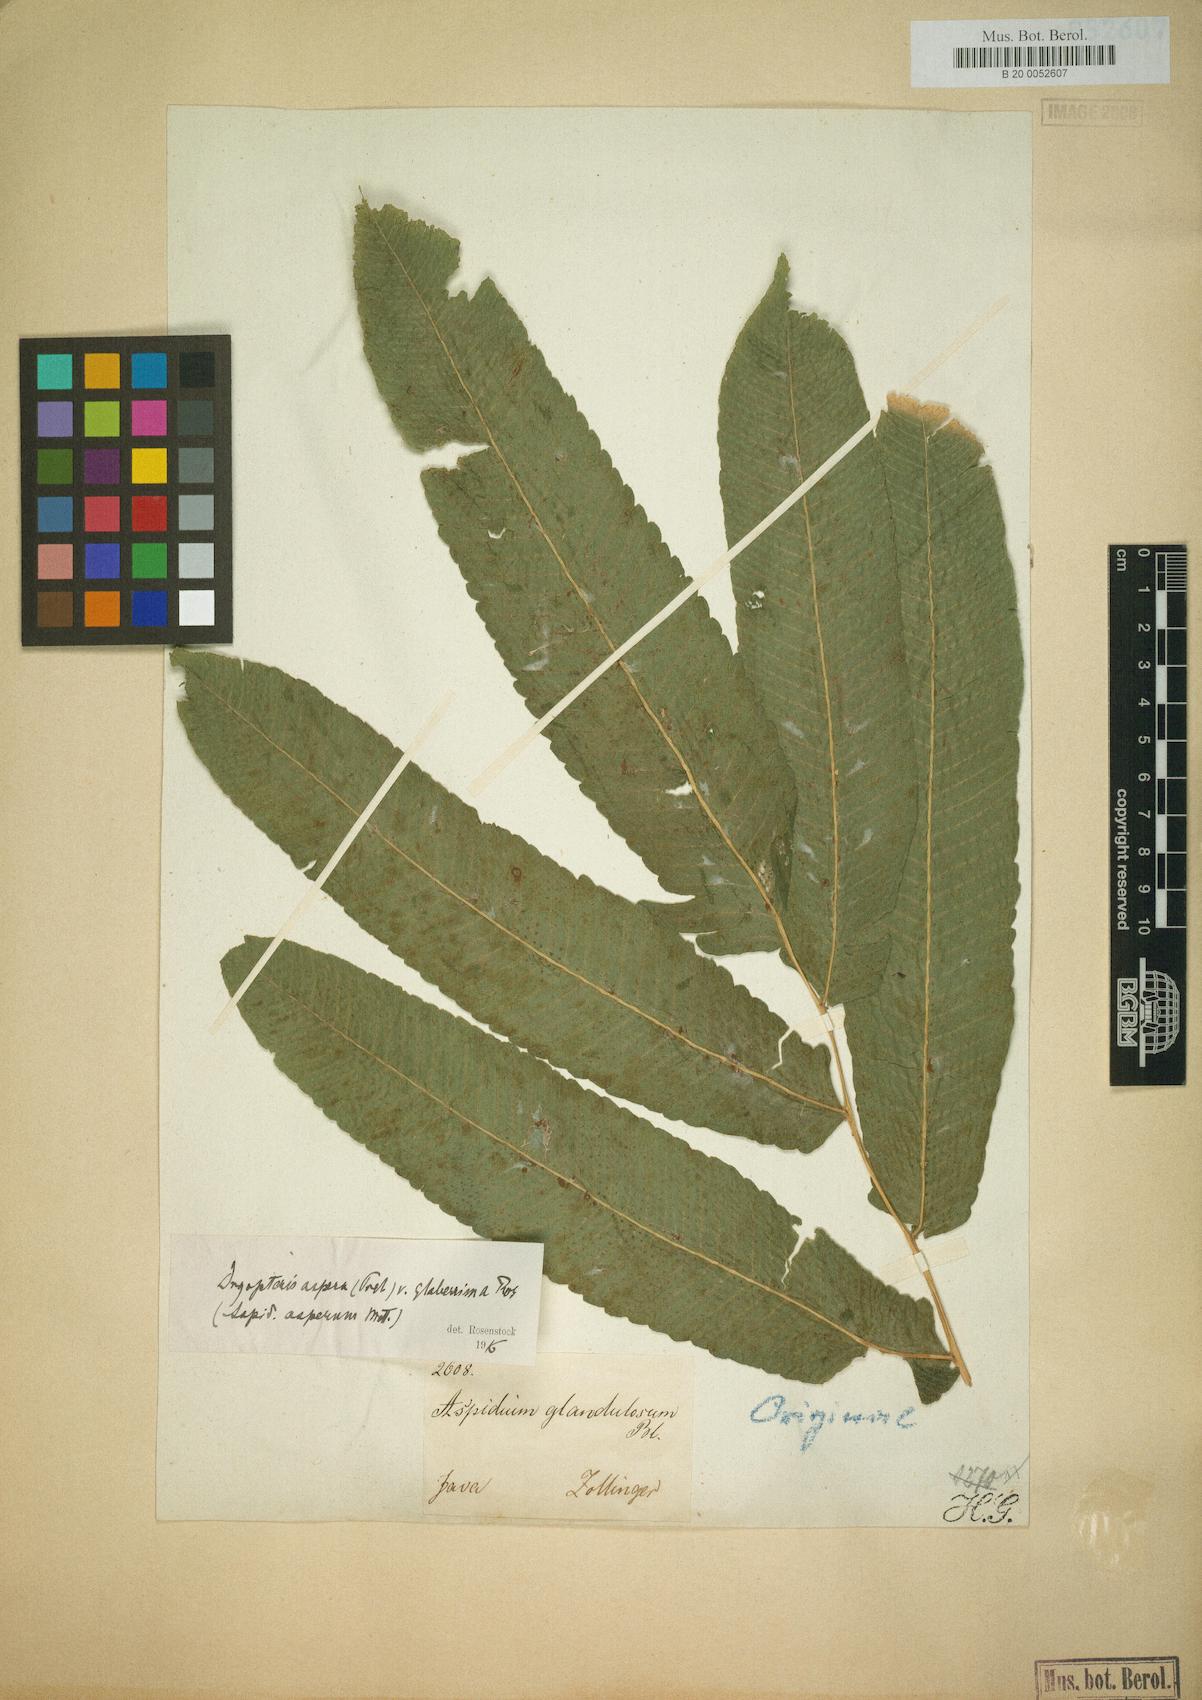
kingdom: Plantae
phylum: Tracheophyta
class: Polypodiopsida
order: Polypodiales
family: Dryopteridaceae
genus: Dryopteris
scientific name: Dryopteris
